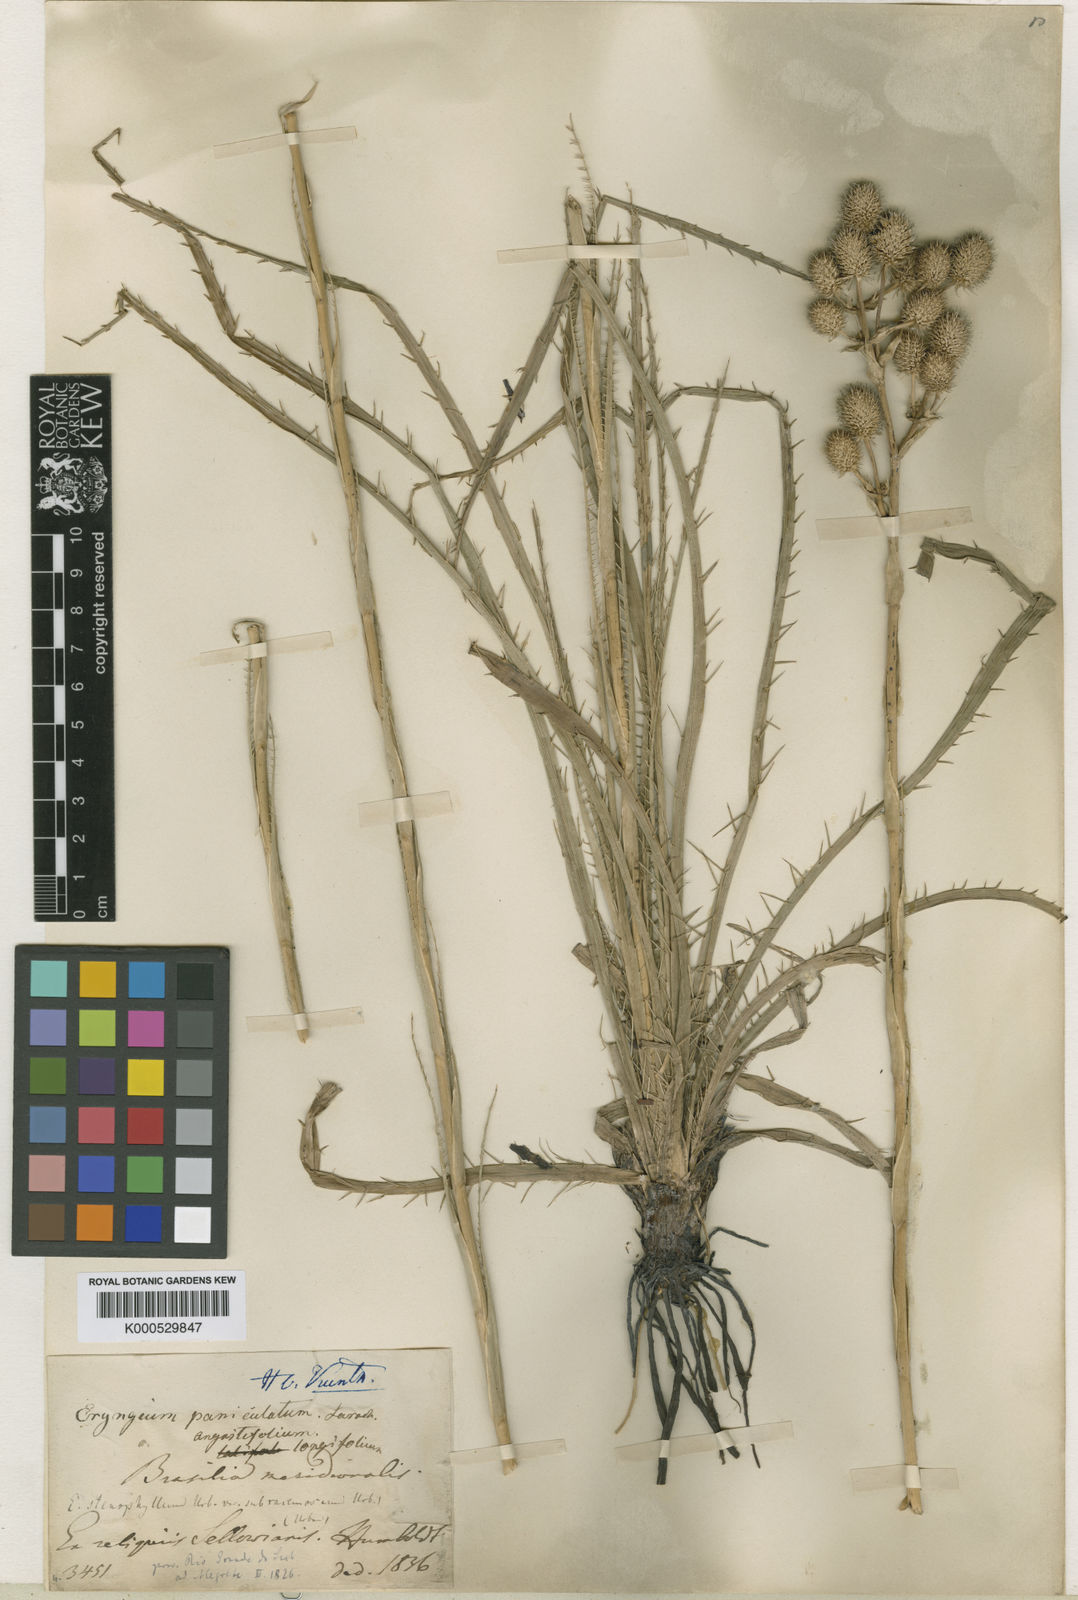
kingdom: Plantae
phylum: Tracheophyta
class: Magnoliopsida
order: Apiales
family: Apiaceae
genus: Eryngium
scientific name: Eryngium stenophyllum
